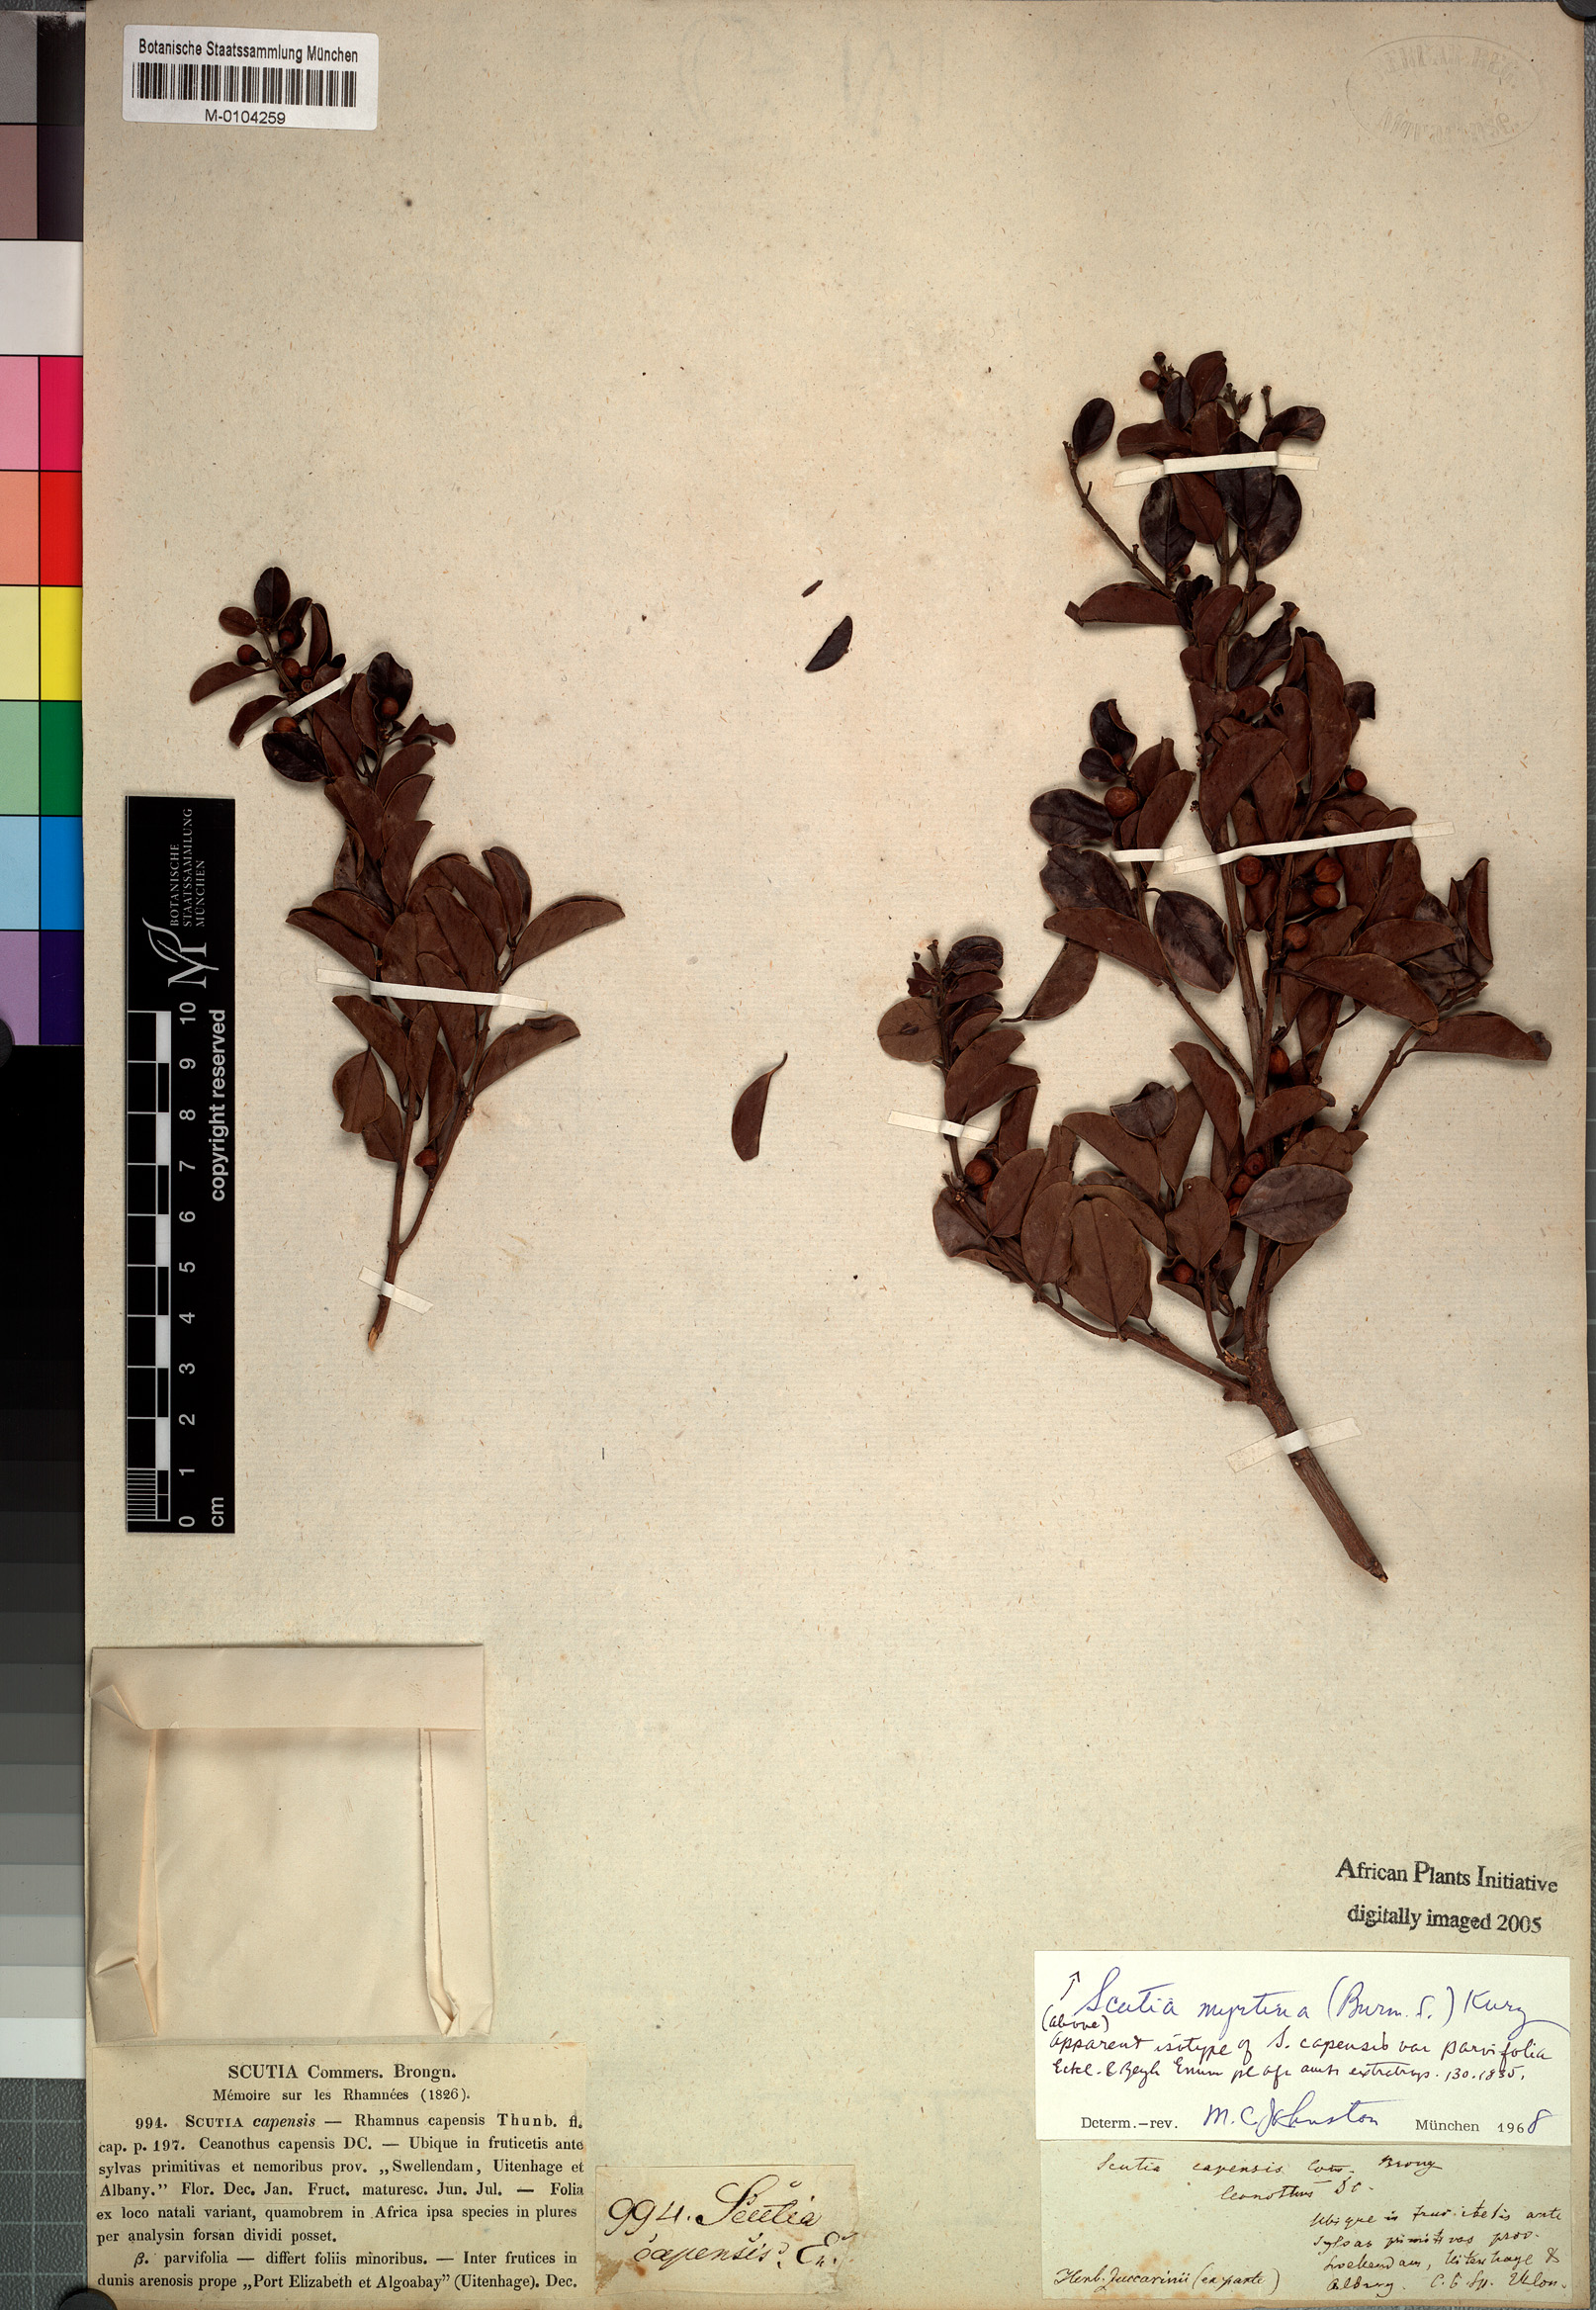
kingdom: Plantae
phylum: Tracheophyta
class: Magnoliopsida
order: Rosales
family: Rhamnaceae
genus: Scutia
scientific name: Scutia myrtina
